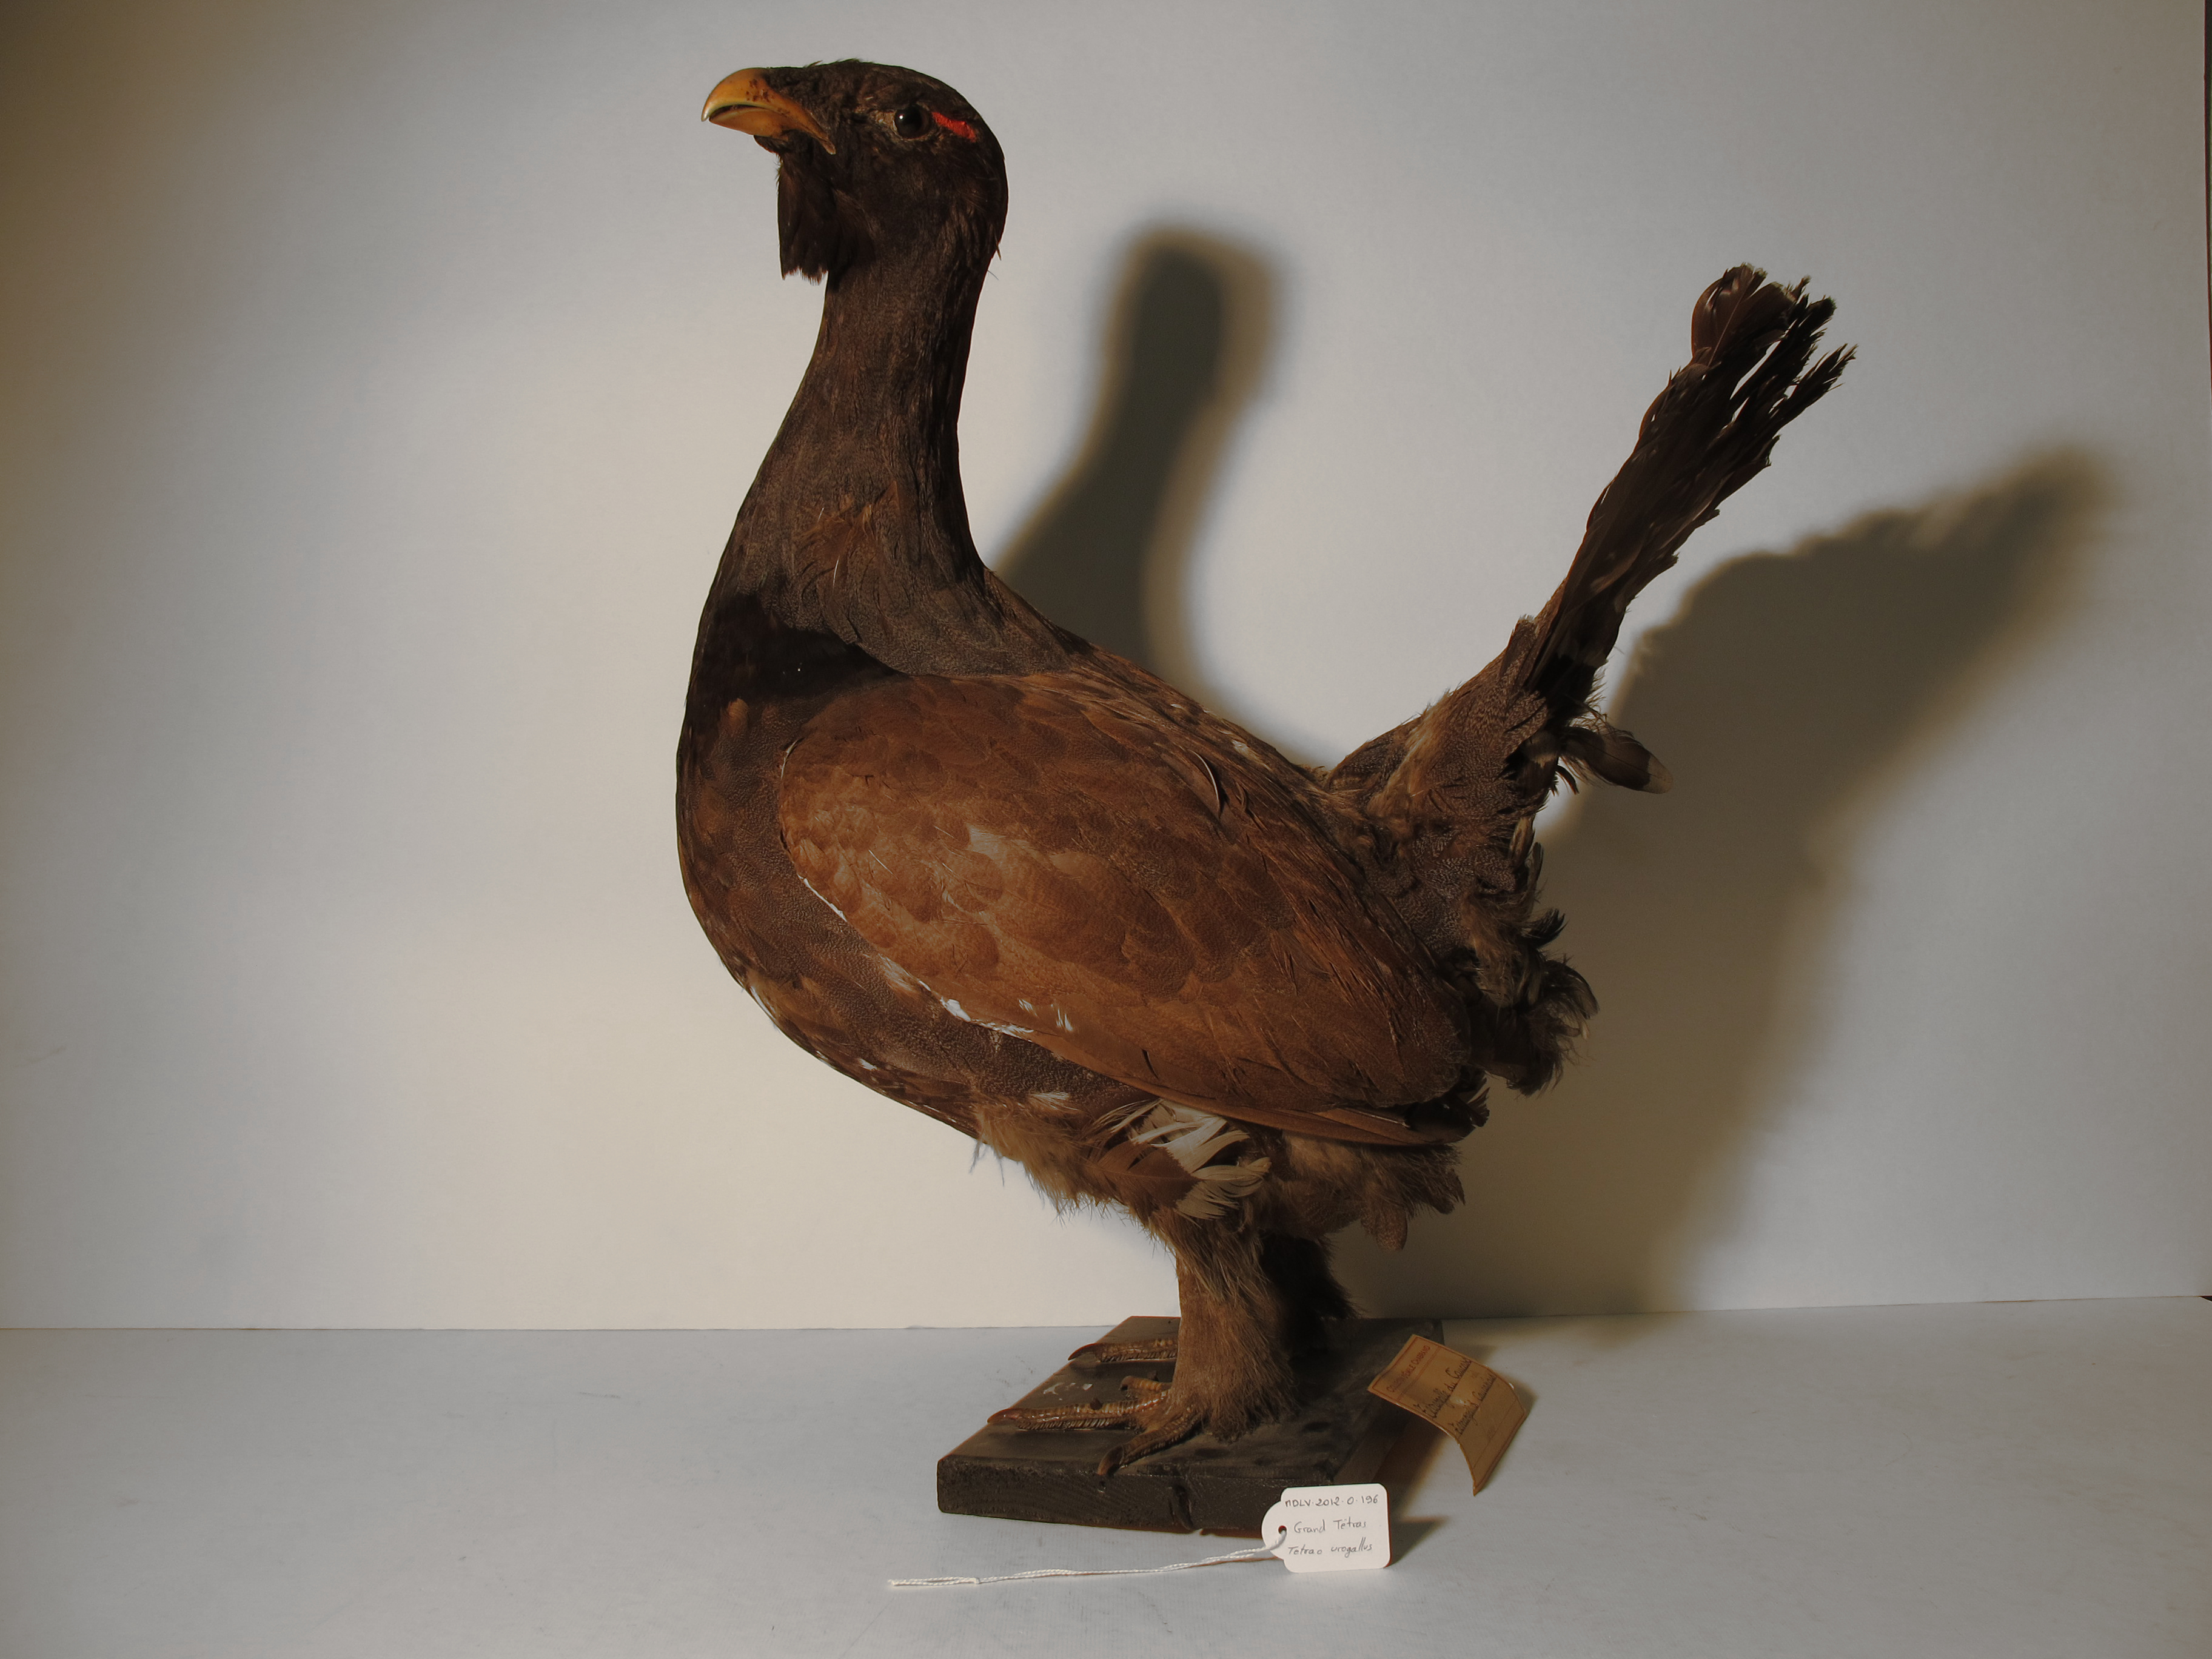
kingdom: Animalia
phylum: Chordata
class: Aves
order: Galliformes
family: Phasianidae
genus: Tetrao
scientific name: Tetrao urogallus
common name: Western Capercaillie
